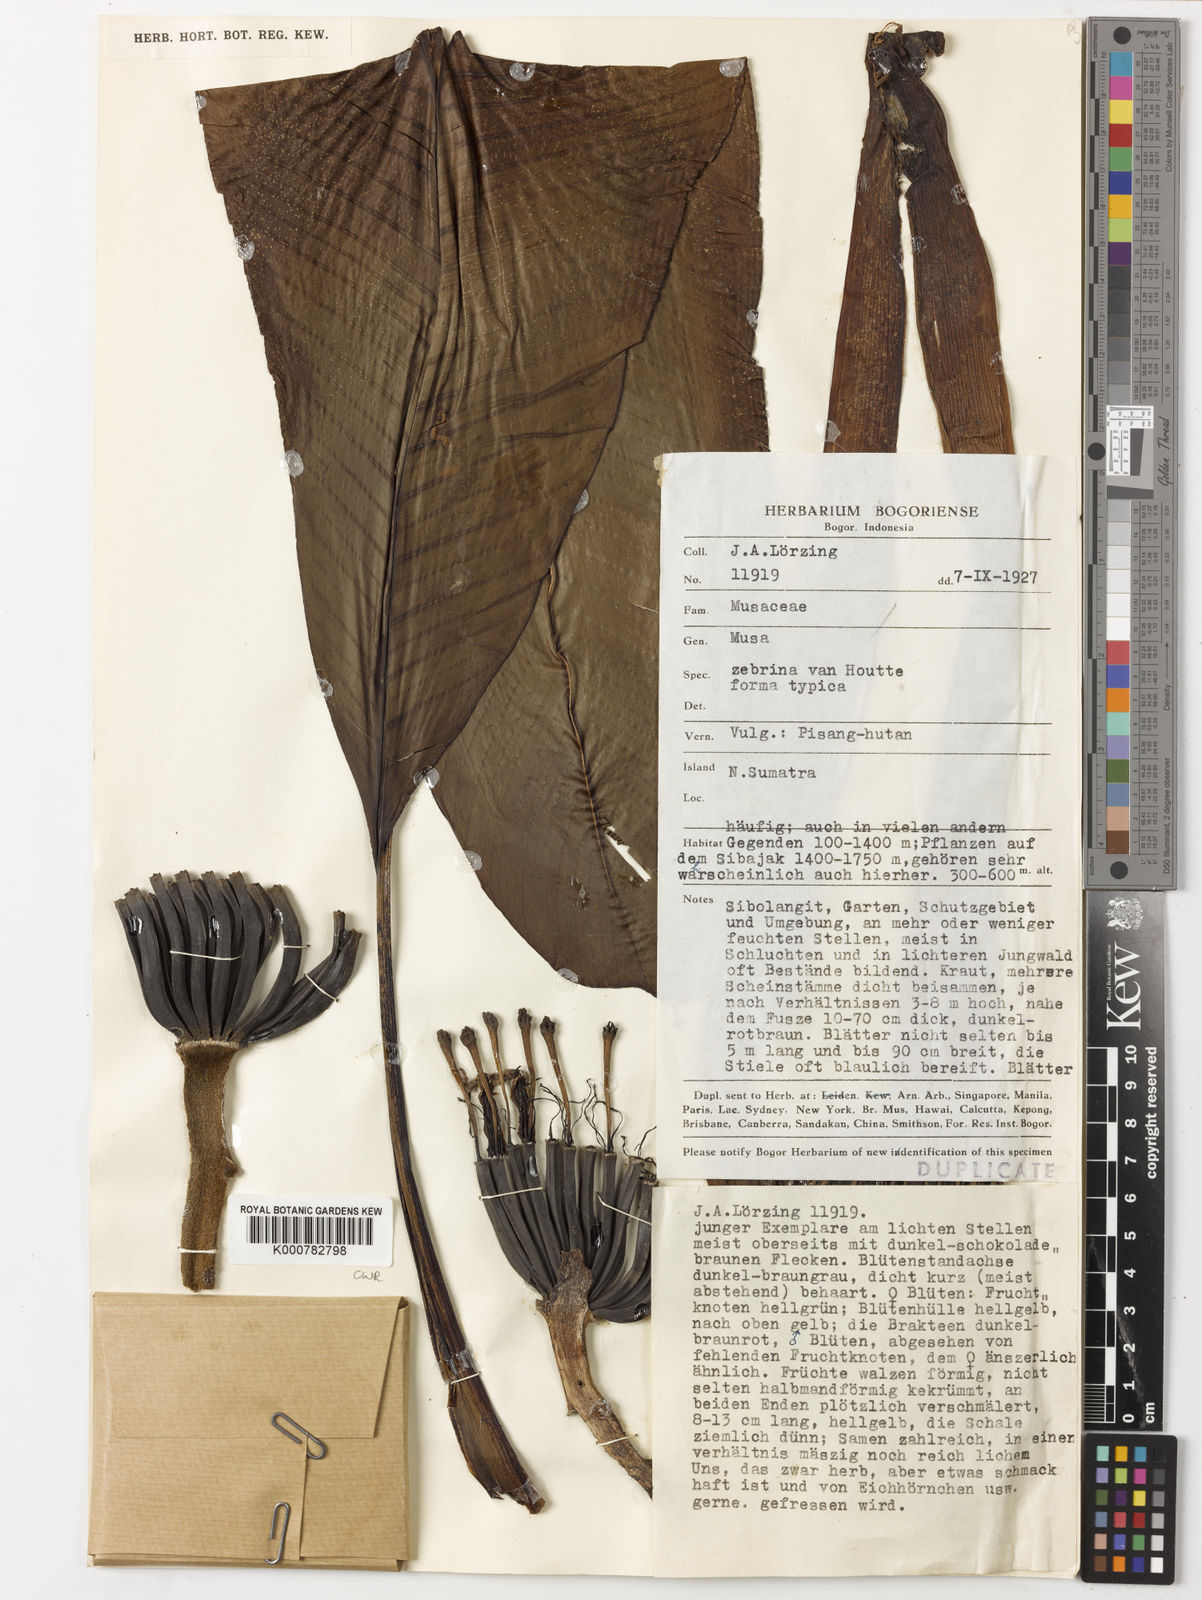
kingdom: Plantae
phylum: Tracheophyta
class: Liliopsida
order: Zingiberales
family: Musaceae
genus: Musa
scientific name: Musa
